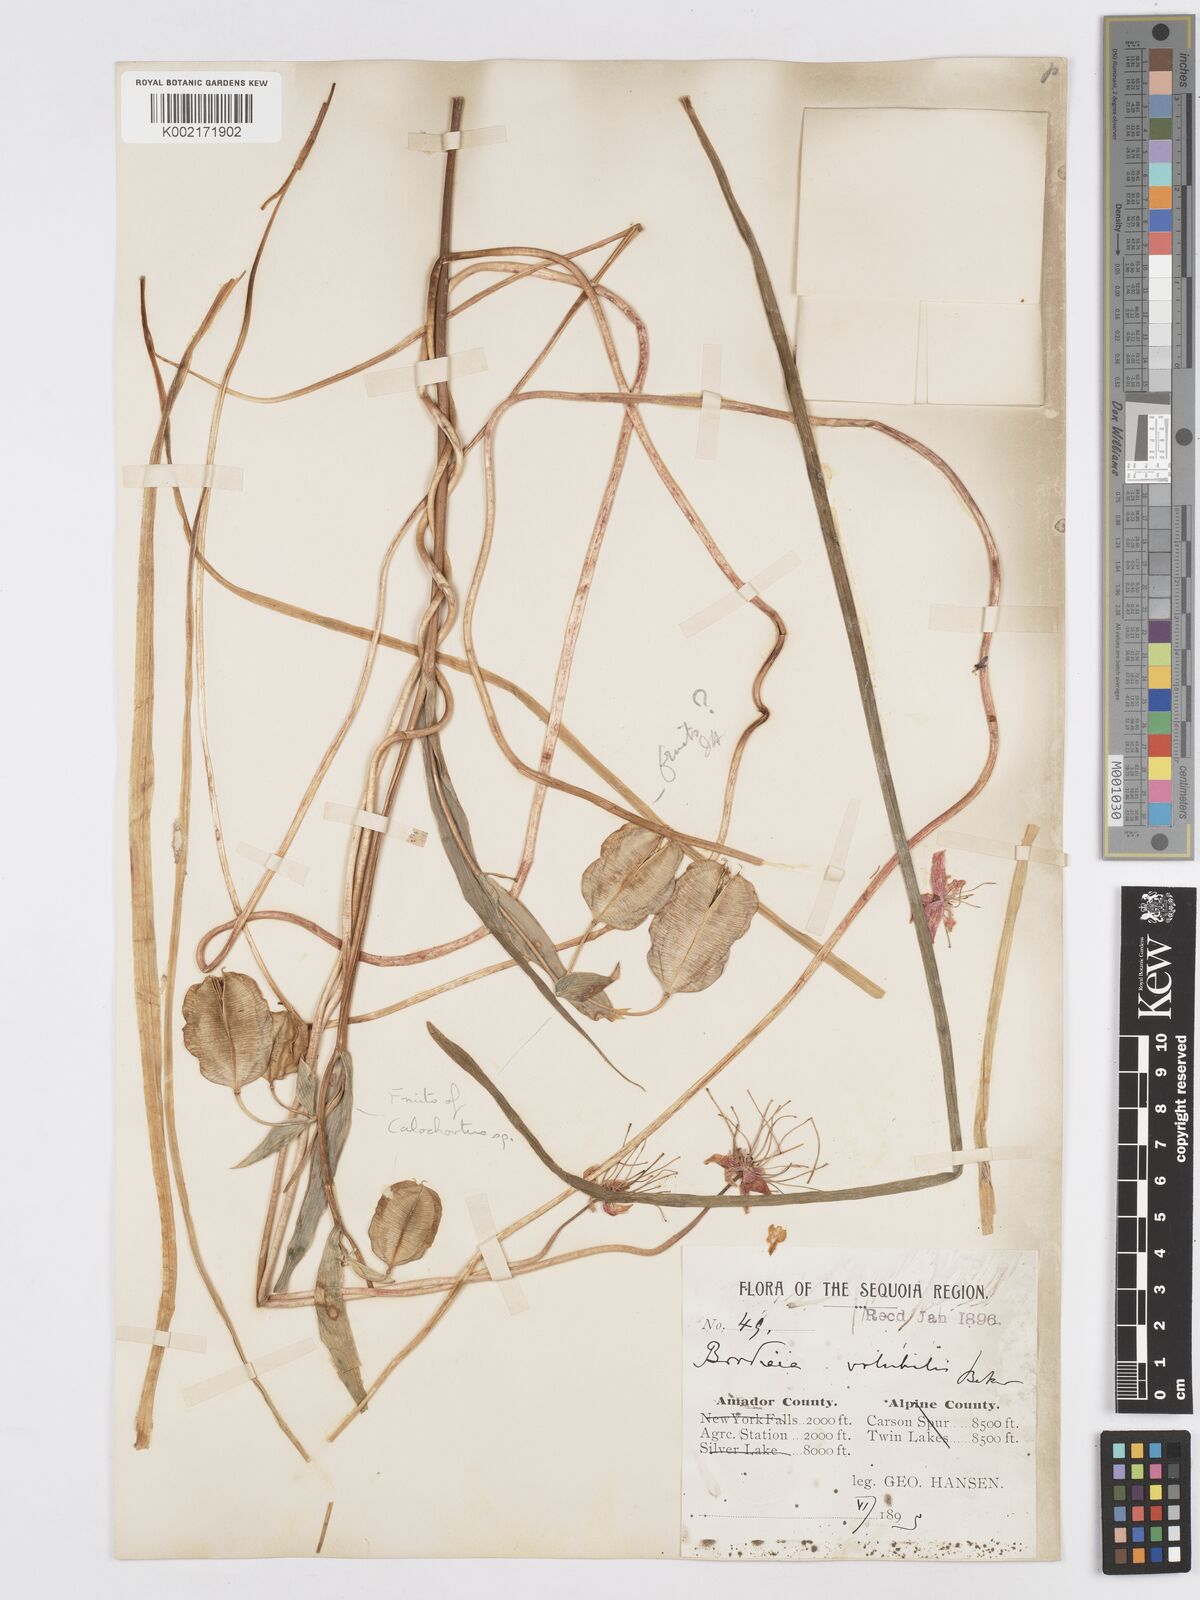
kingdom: Plantae
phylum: Tracheophyta
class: Liliopsida
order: Asparagales
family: Asparagaceae
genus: Dichelostemma
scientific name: Dichelostemma volubile
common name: Trining brodiaea
